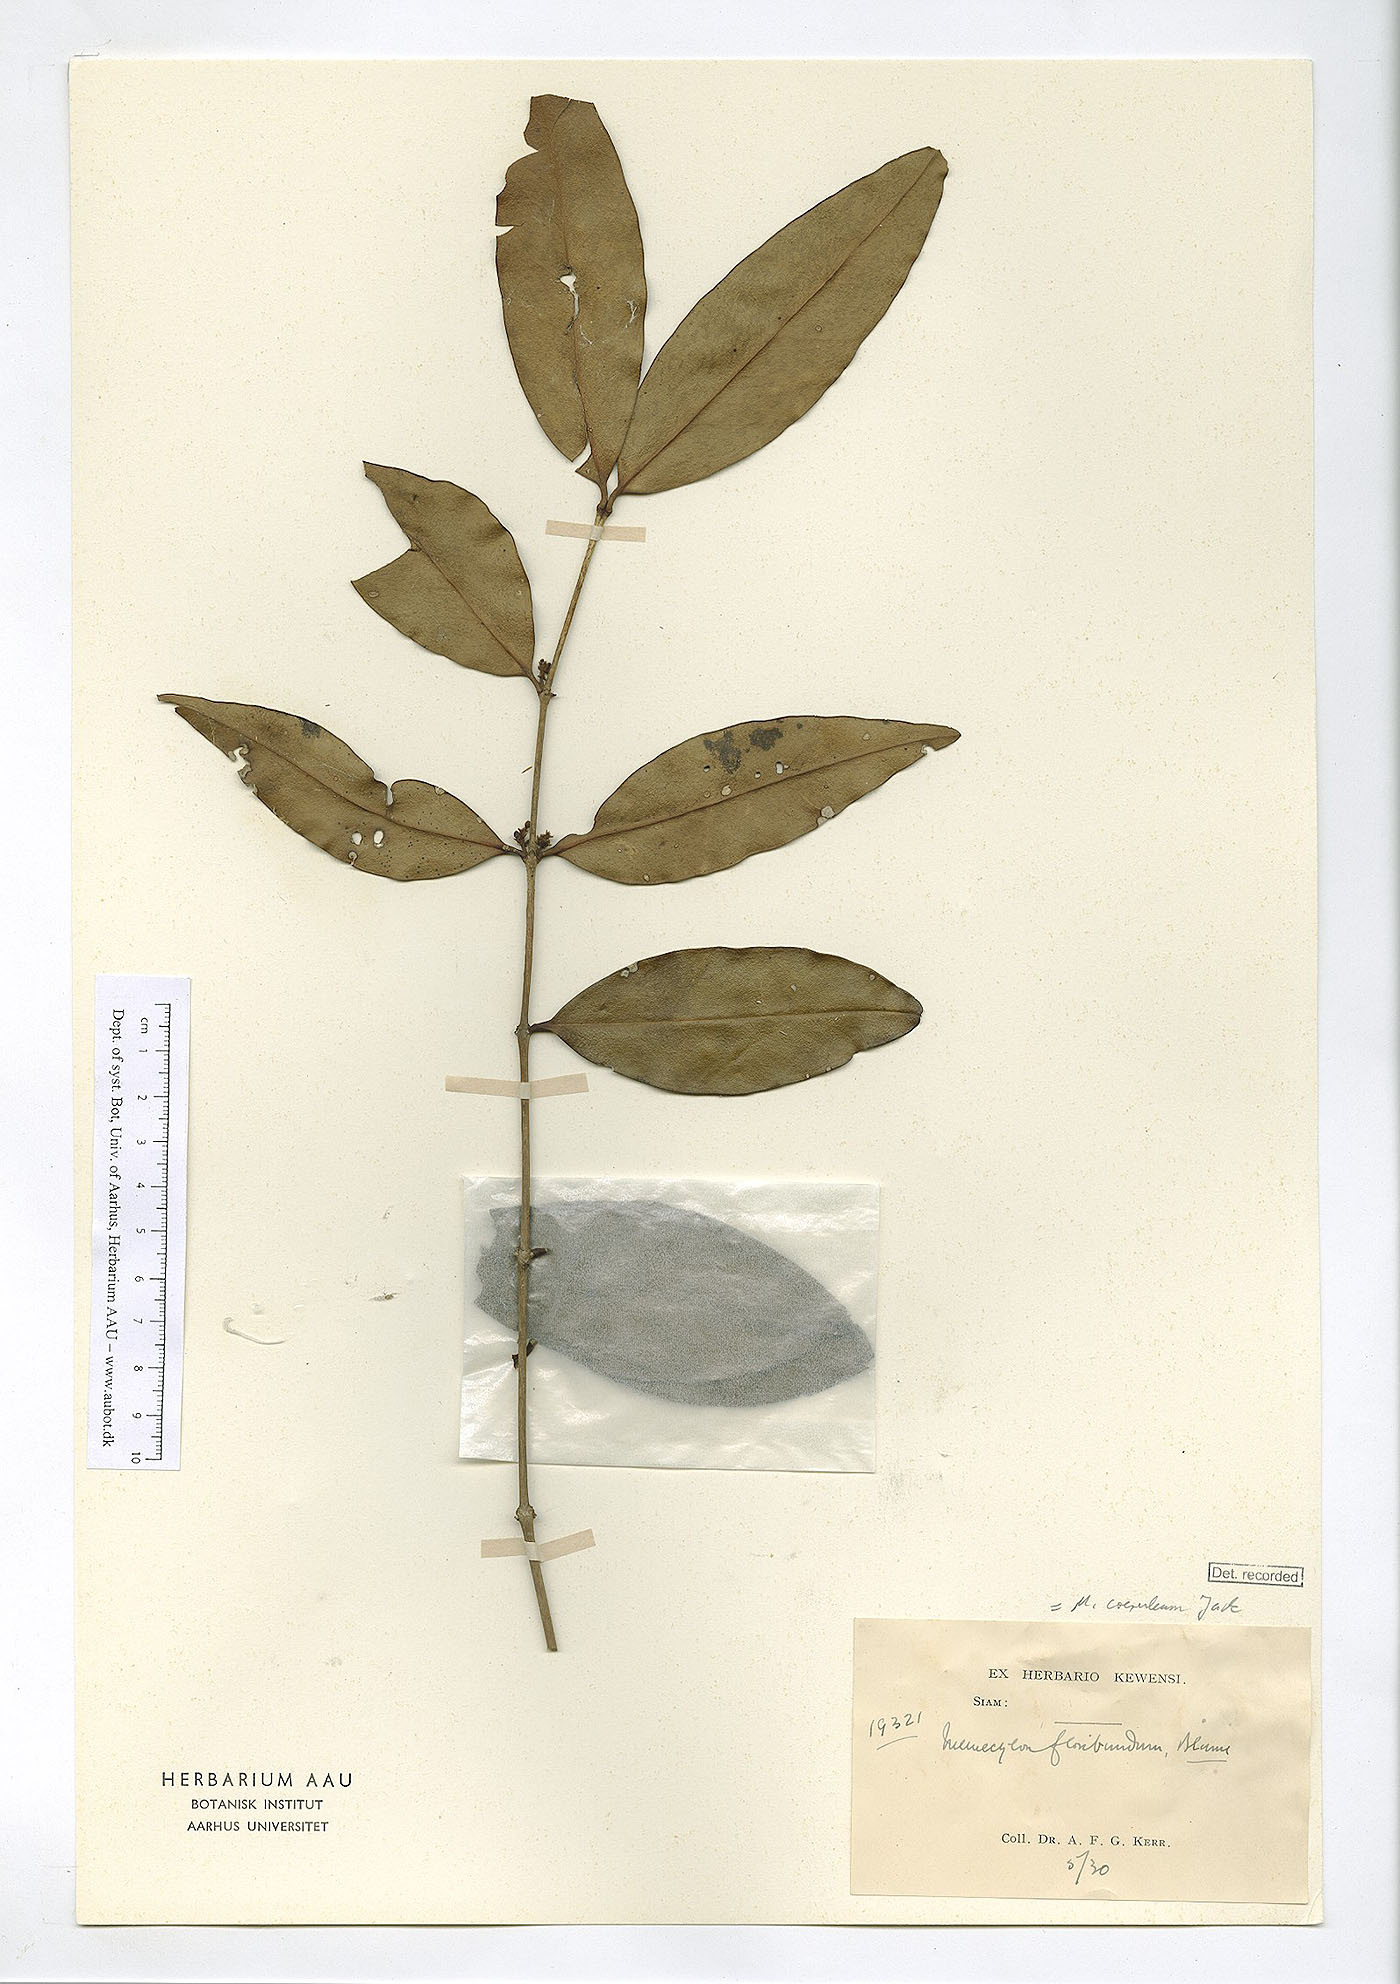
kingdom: Plantae
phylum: Tracheophyta
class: Magnoliopsida
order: Myrtales
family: Melastomataceae
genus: Memecylon
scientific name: Memecylon caeruleum
